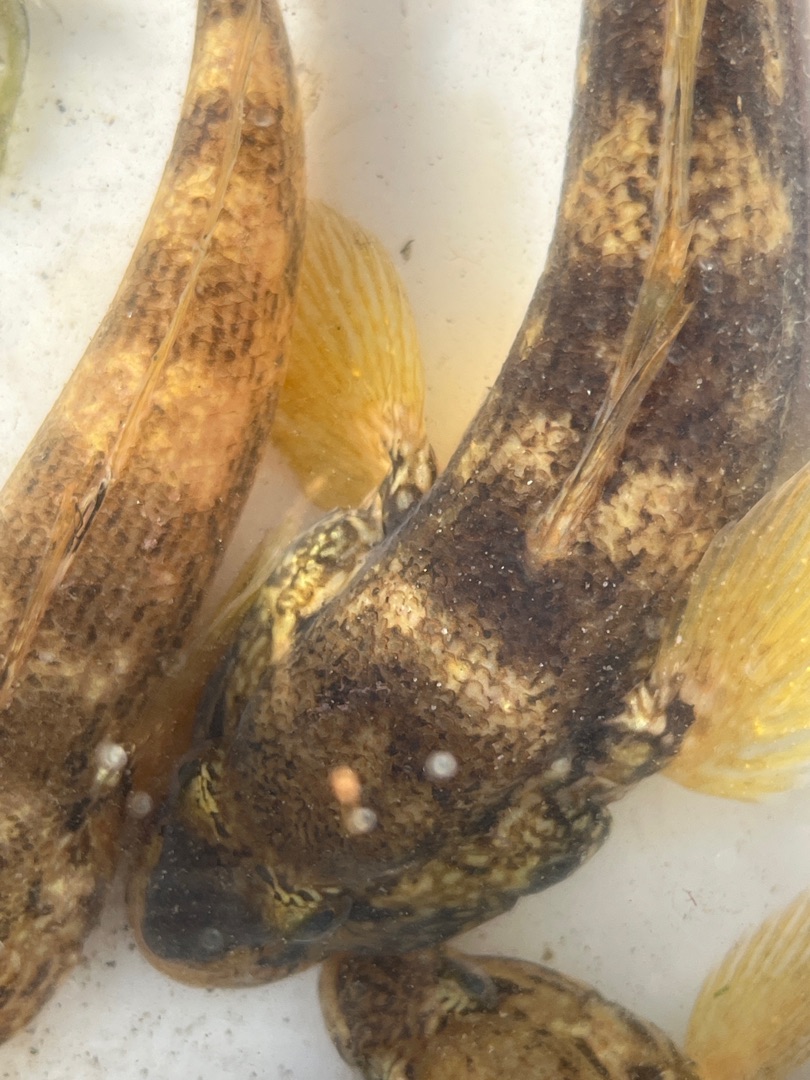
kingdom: Animalia
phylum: Chordata
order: Perciformes
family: Gobiidae
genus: Neogobius
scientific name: Neogobius melanostomus
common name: Sortmundet kutling
